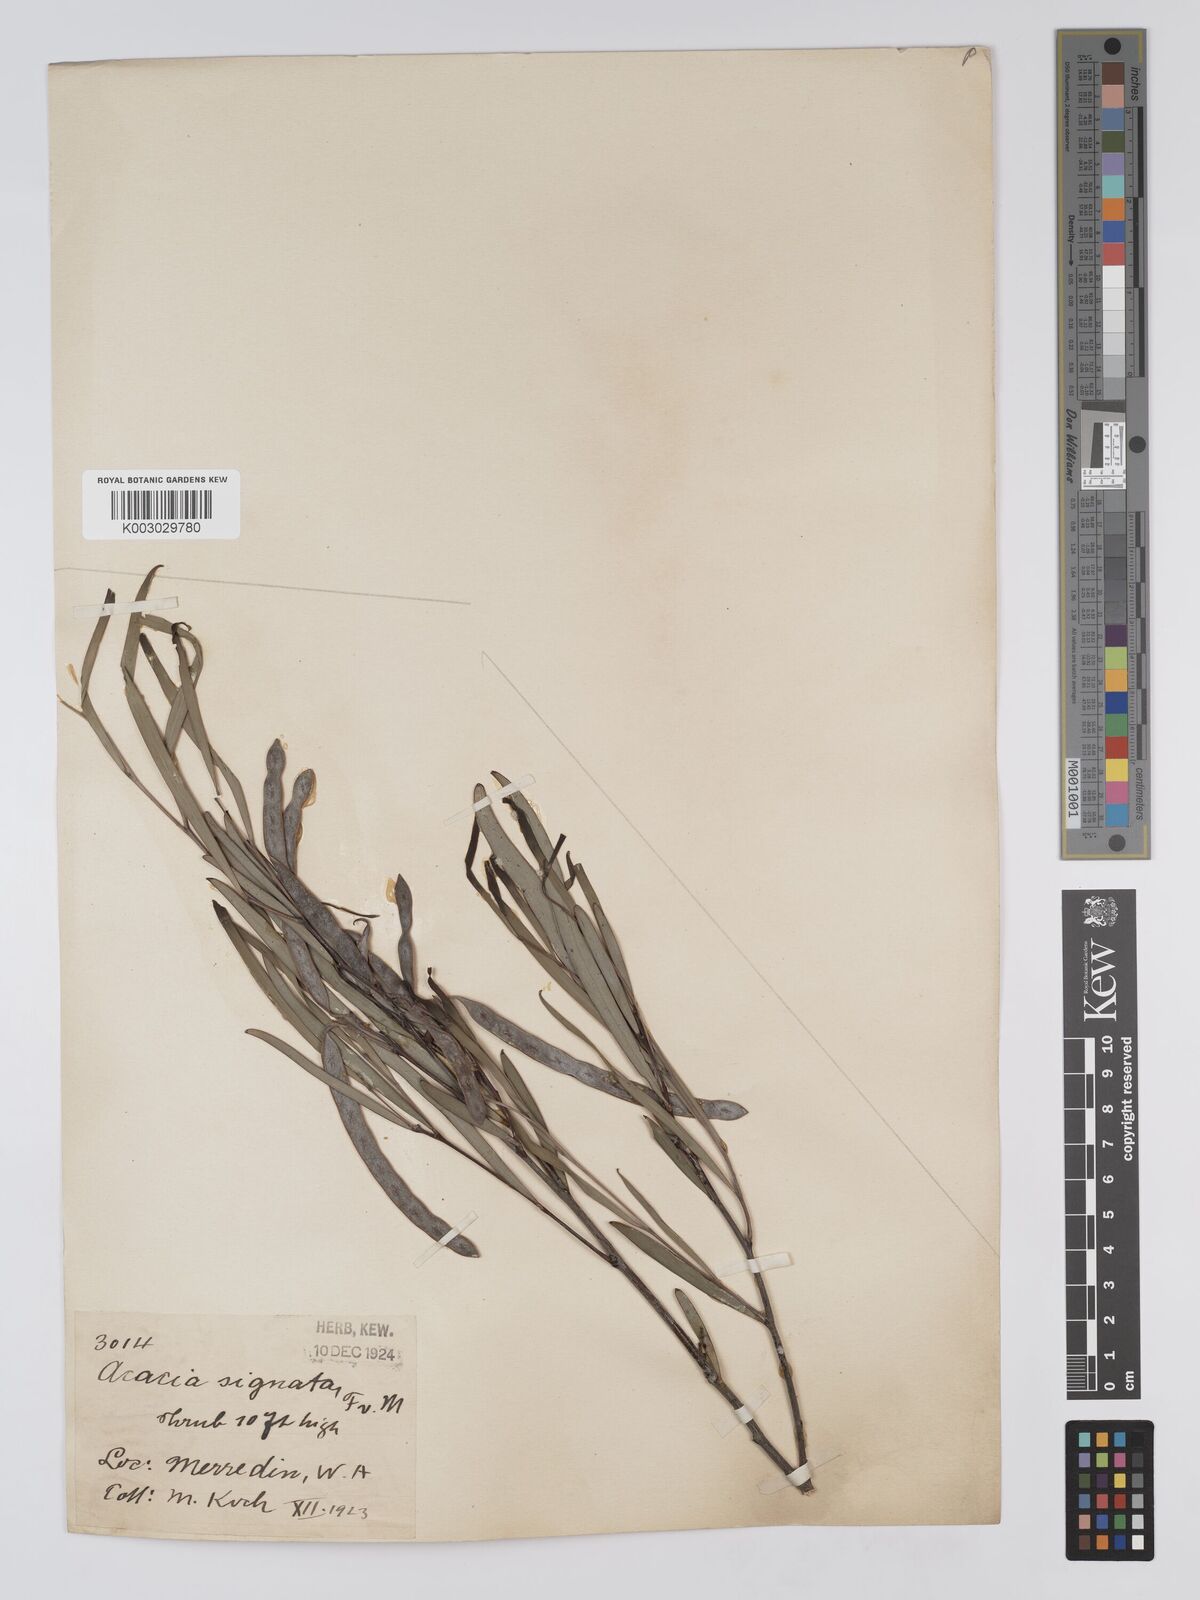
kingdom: Plantae
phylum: Tracheophyta
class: Magnoliopsida
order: Fabales
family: Fabaceae
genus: Acacia
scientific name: Acacia signata
